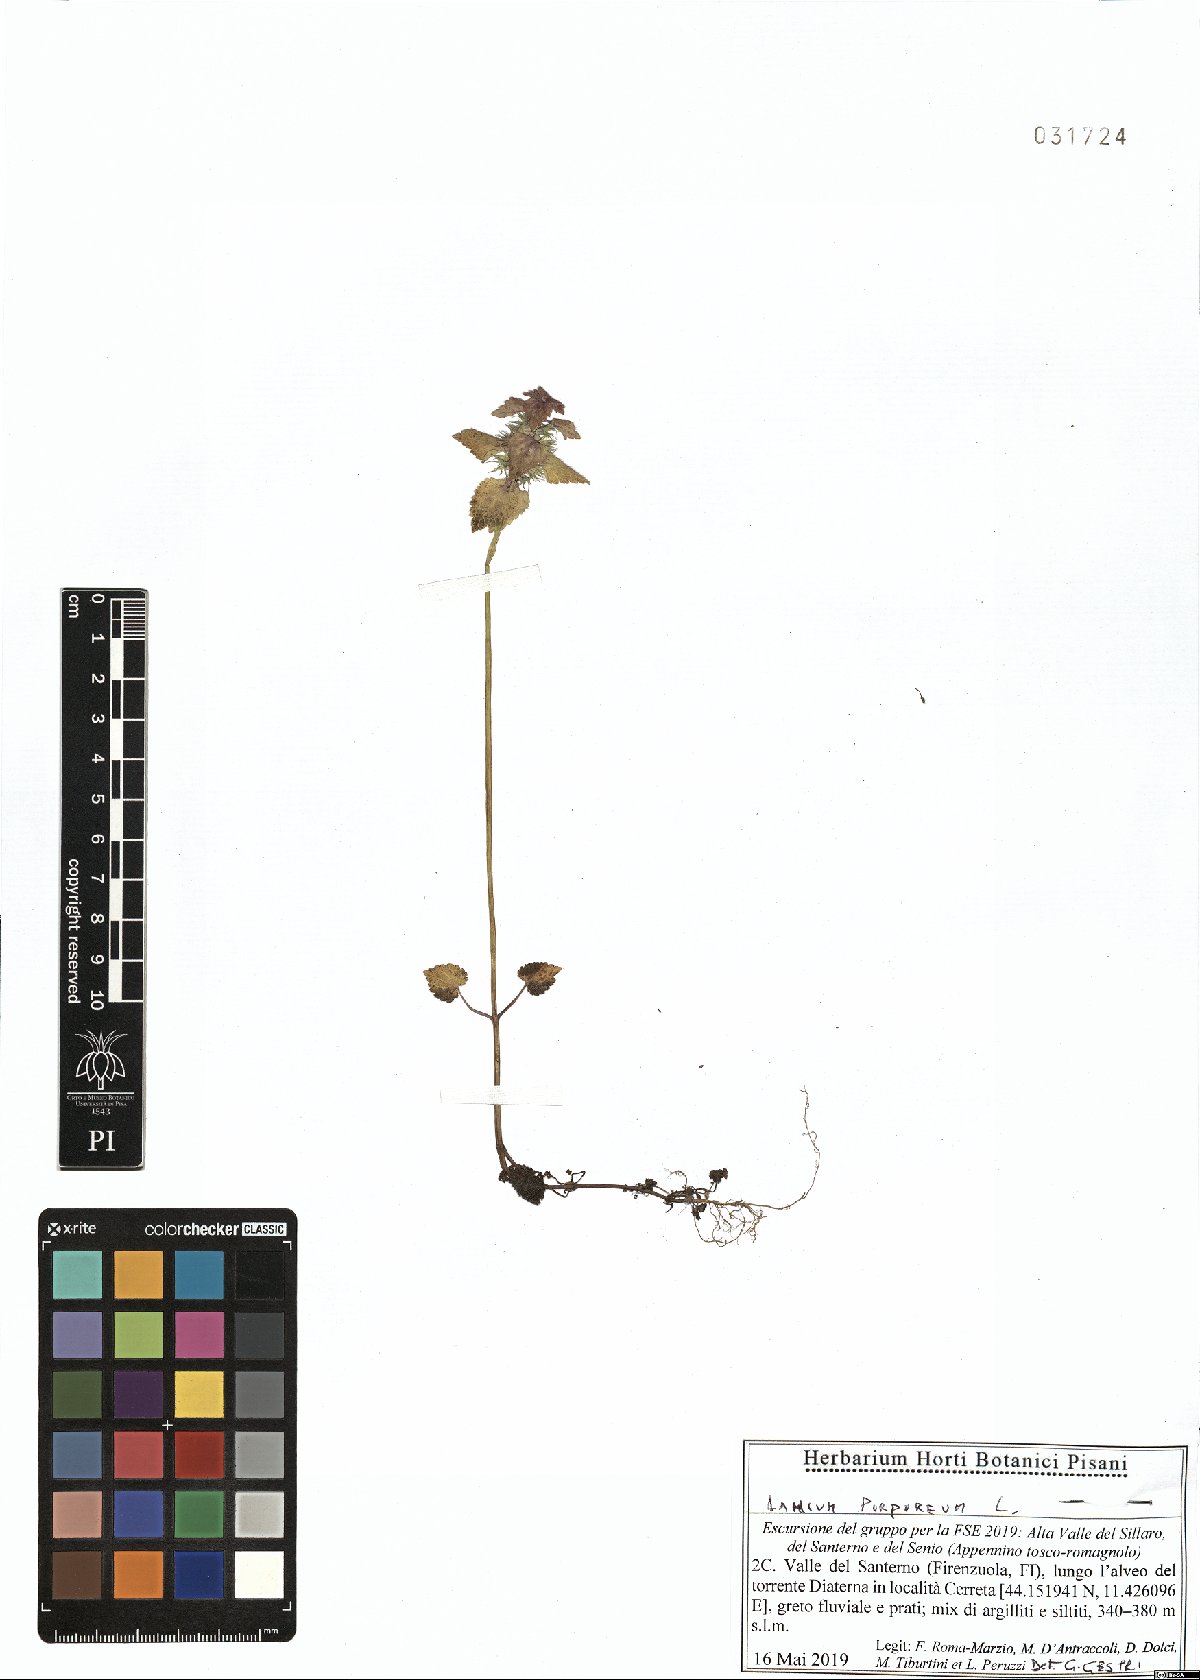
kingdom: Plantae
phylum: Tracheophyta
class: Magnoliopsida
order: Lamiales
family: Lamiaceae
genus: Lamium
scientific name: Lamium purpureum
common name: Red dead-nettle
